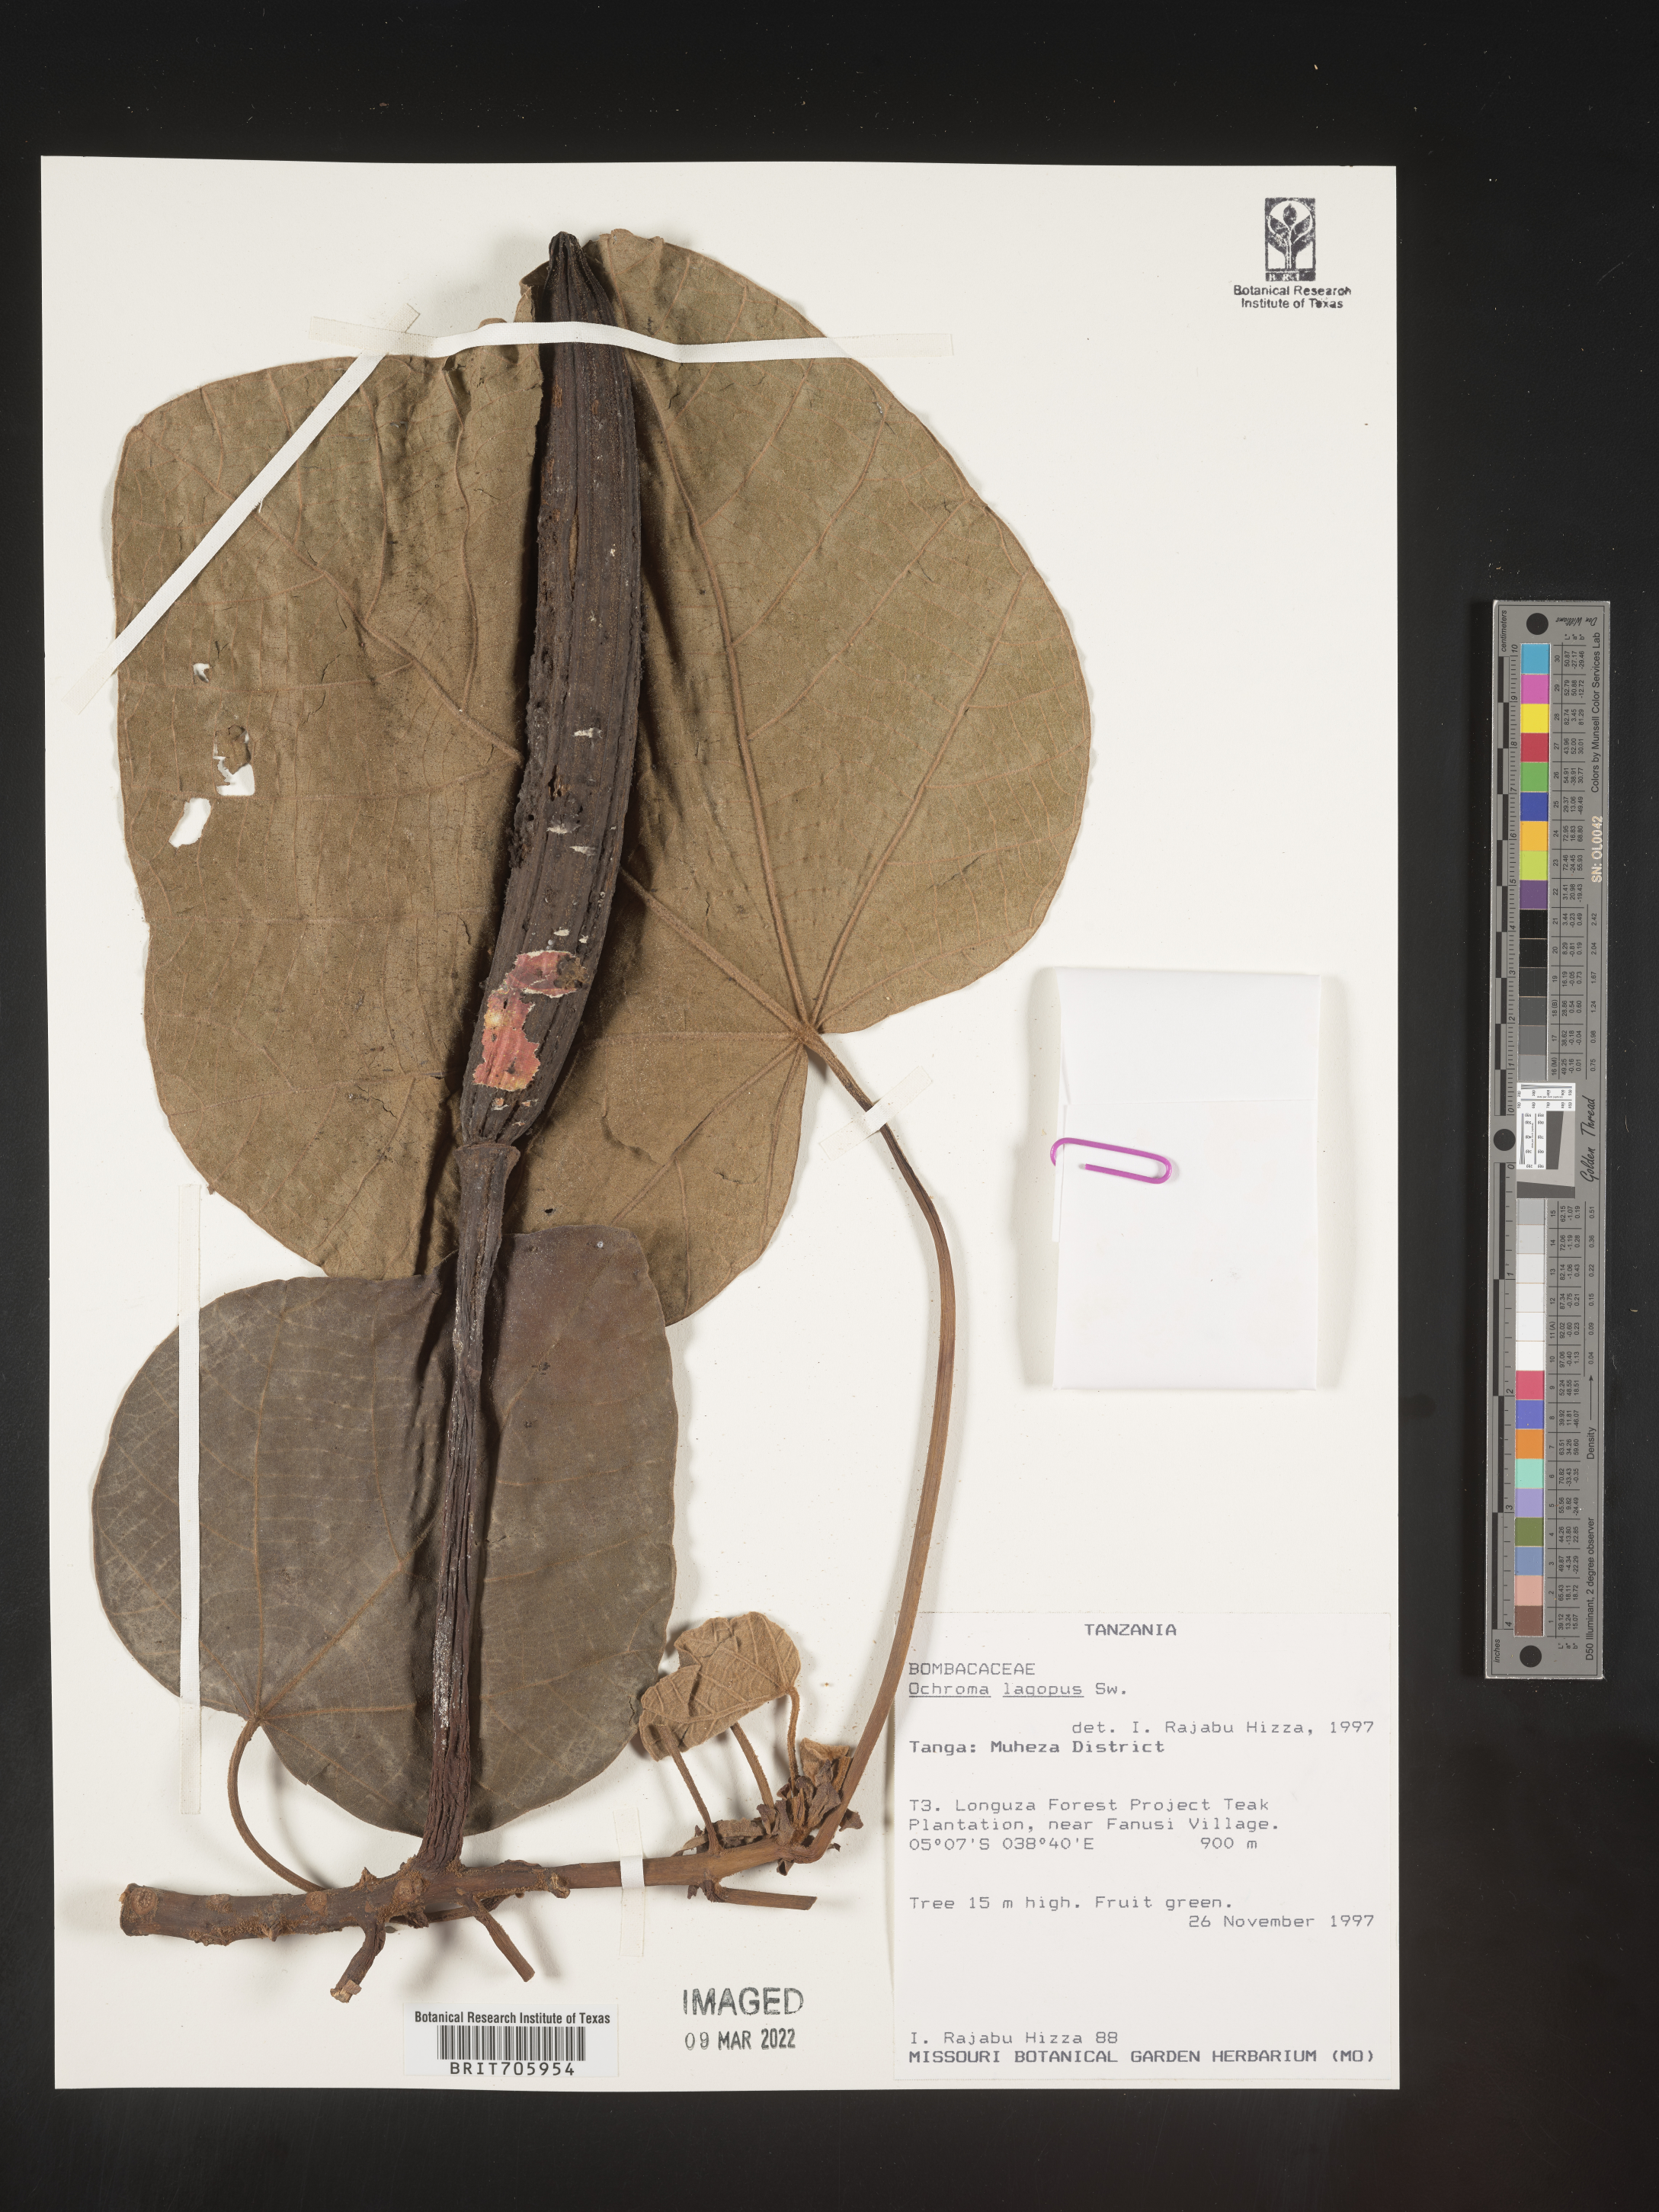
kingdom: Plantae
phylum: Tracheophyta
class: Magnoliopsida
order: Malvales
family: Malvaceae
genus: Ochroma
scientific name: Ochroma
